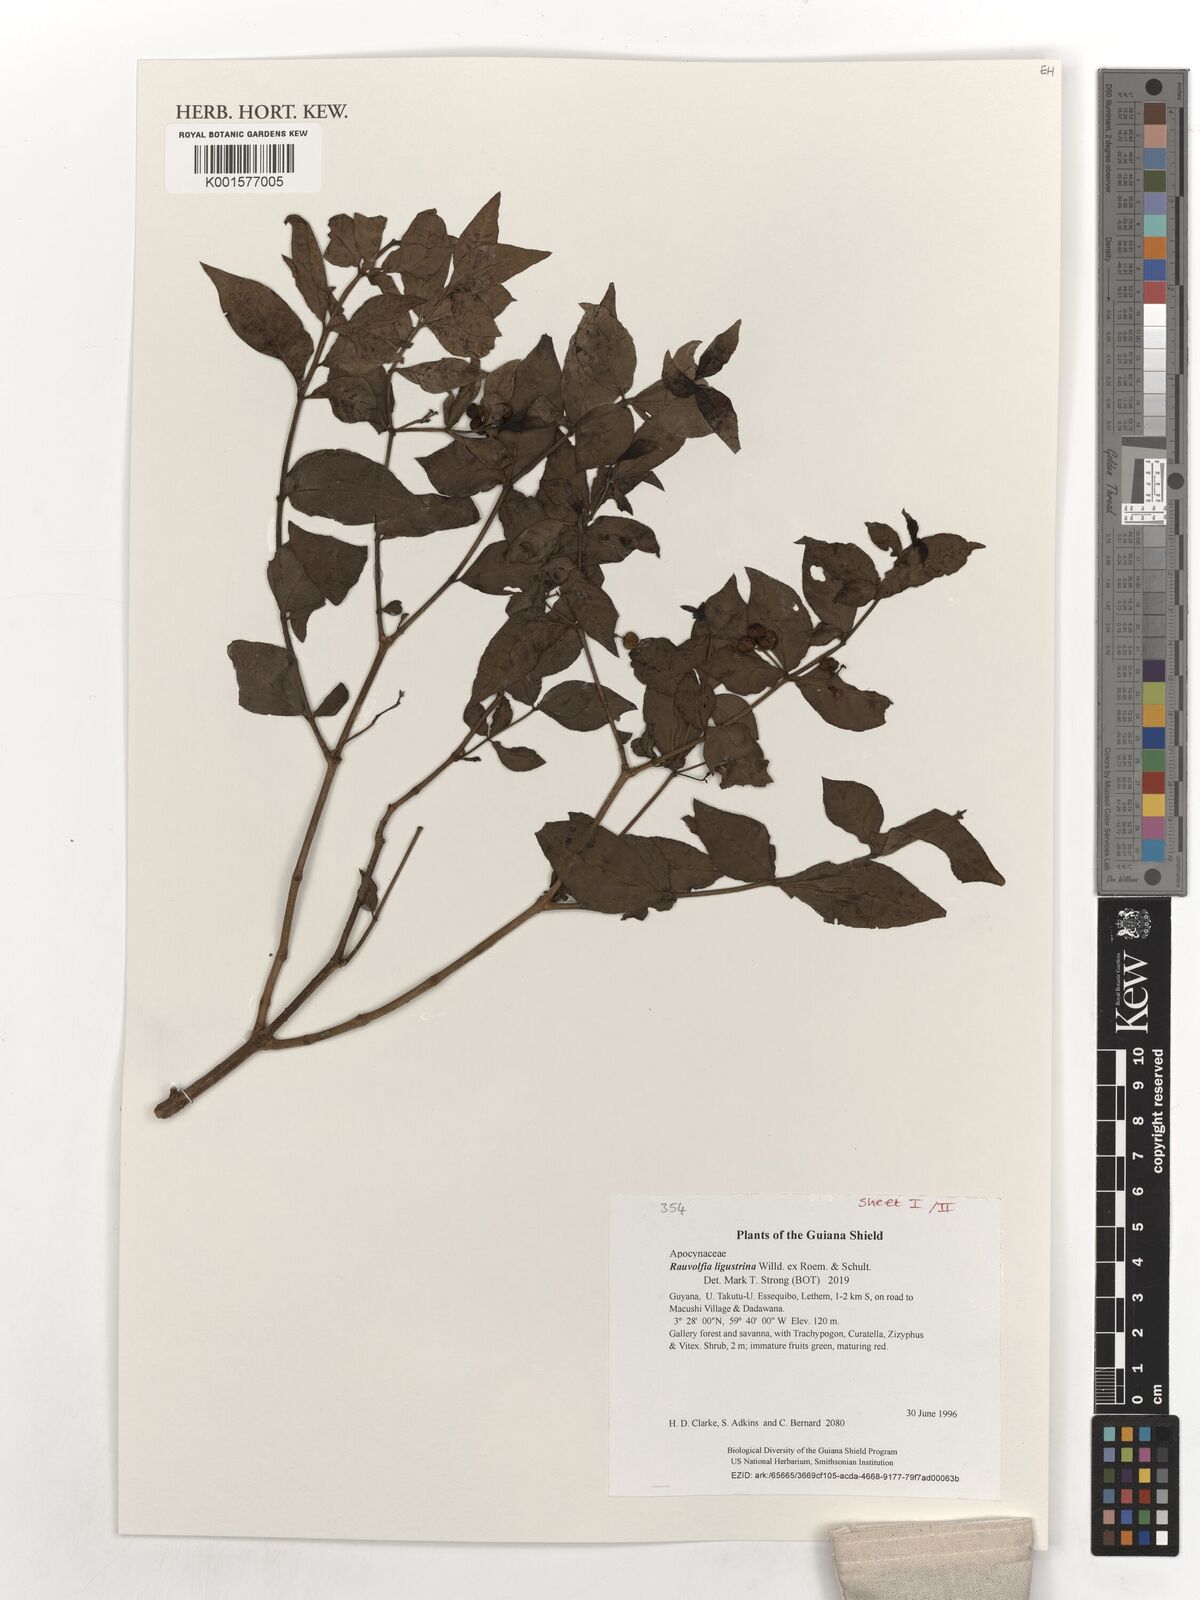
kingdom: Plantae
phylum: Tracheophyta
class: Magnoliopsida
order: Gentianales
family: Apocynaceae
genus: Rauvolfia
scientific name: Rauvolfia ligustrina
